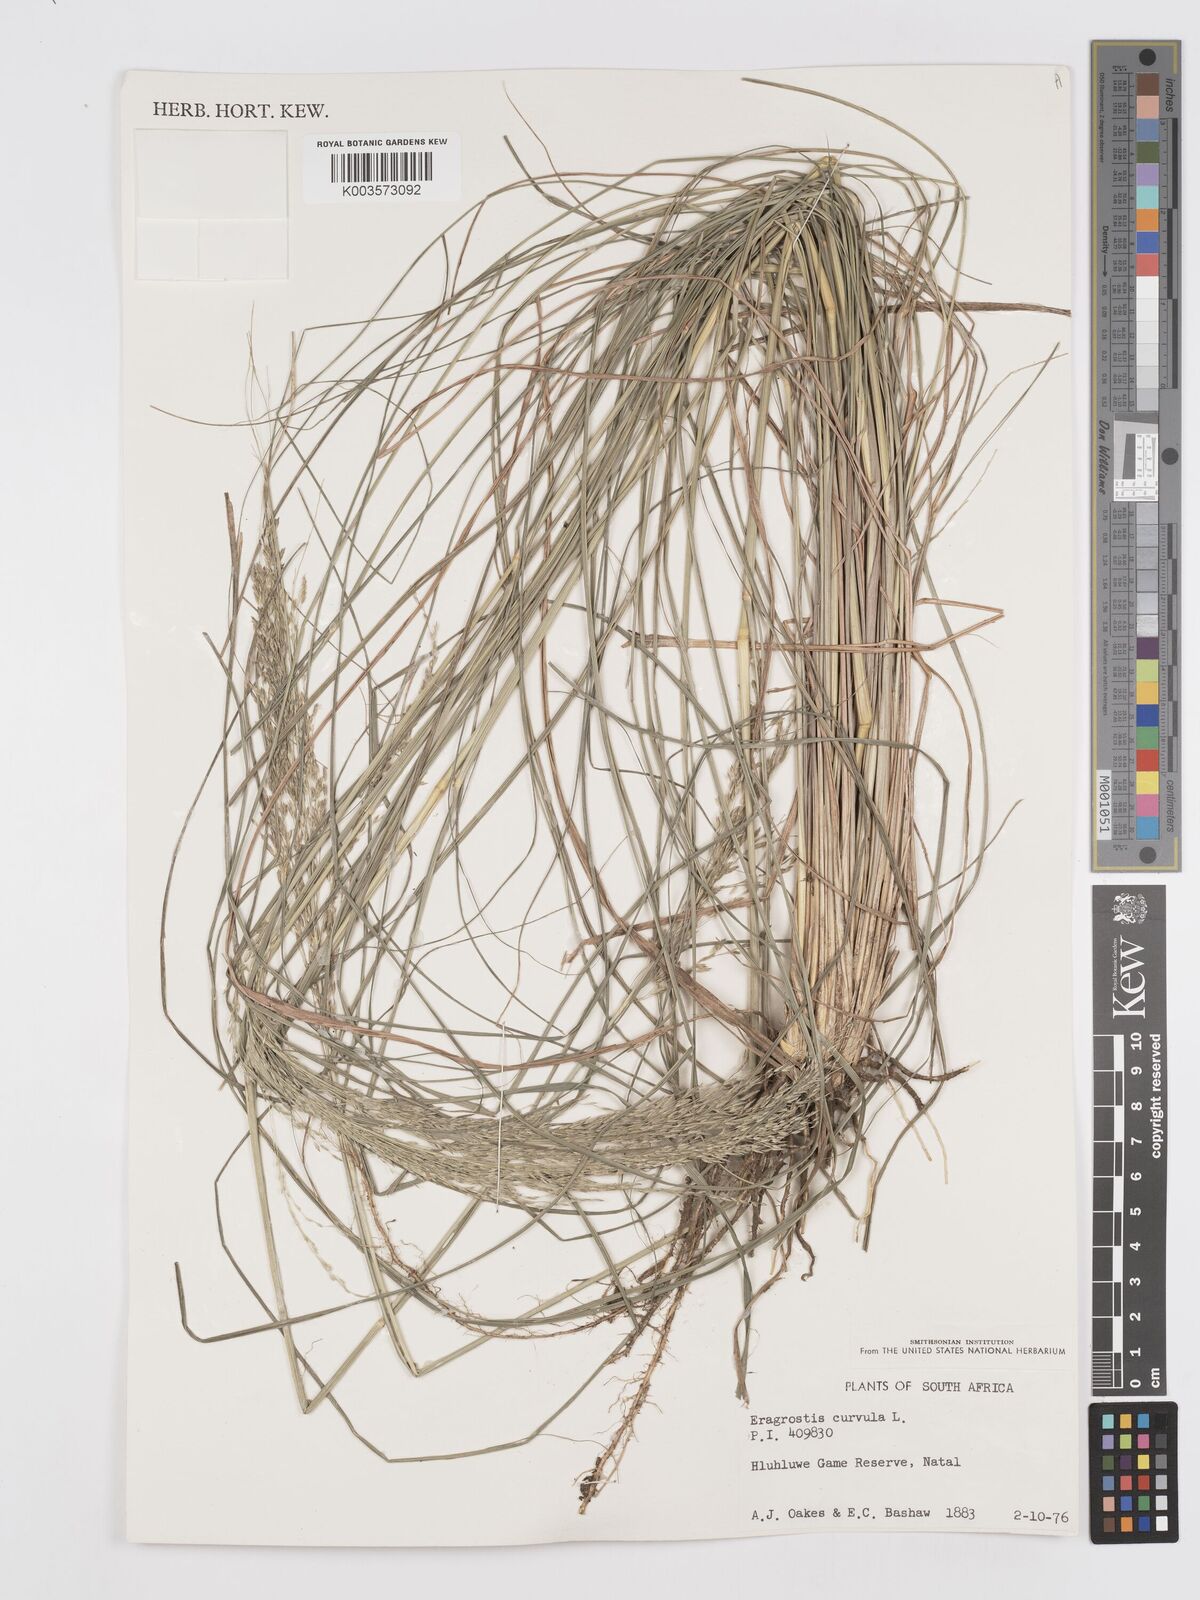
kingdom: Plantae
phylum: Tracheophyta
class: Liliopsida
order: Poales
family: Poaceae
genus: Eragrostis
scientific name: Eragrostis curvula
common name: African love-grass
